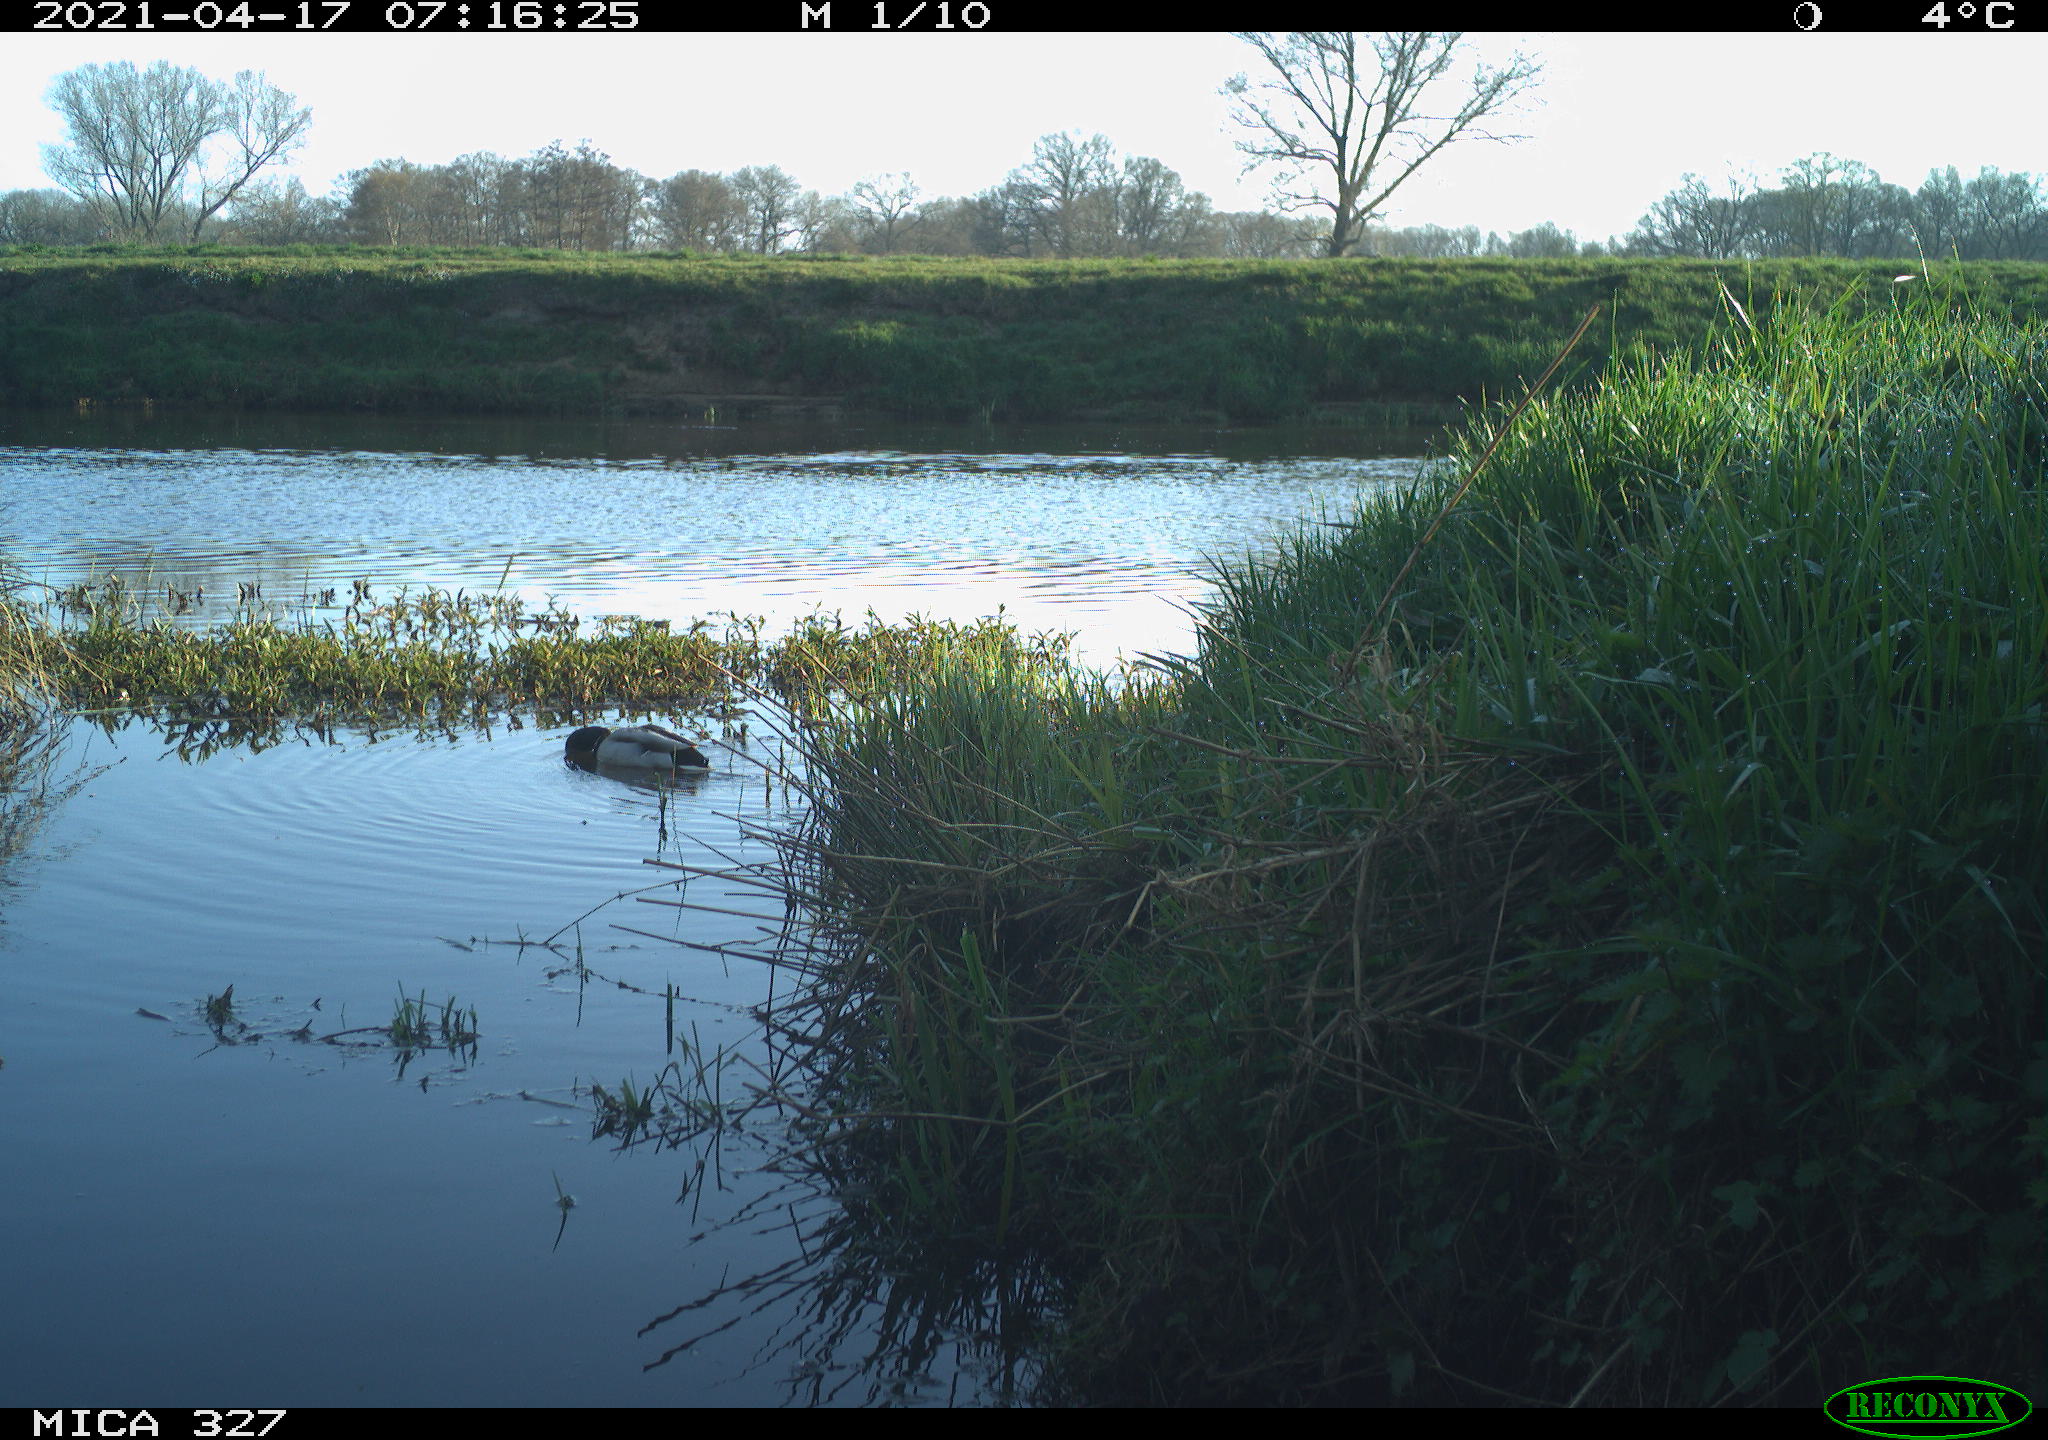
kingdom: Animalia
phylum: Chordata
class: Aves
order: Anseriformes
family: Anatidae
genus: Anas
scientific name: Anas platyrhynchos
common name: Mallard
